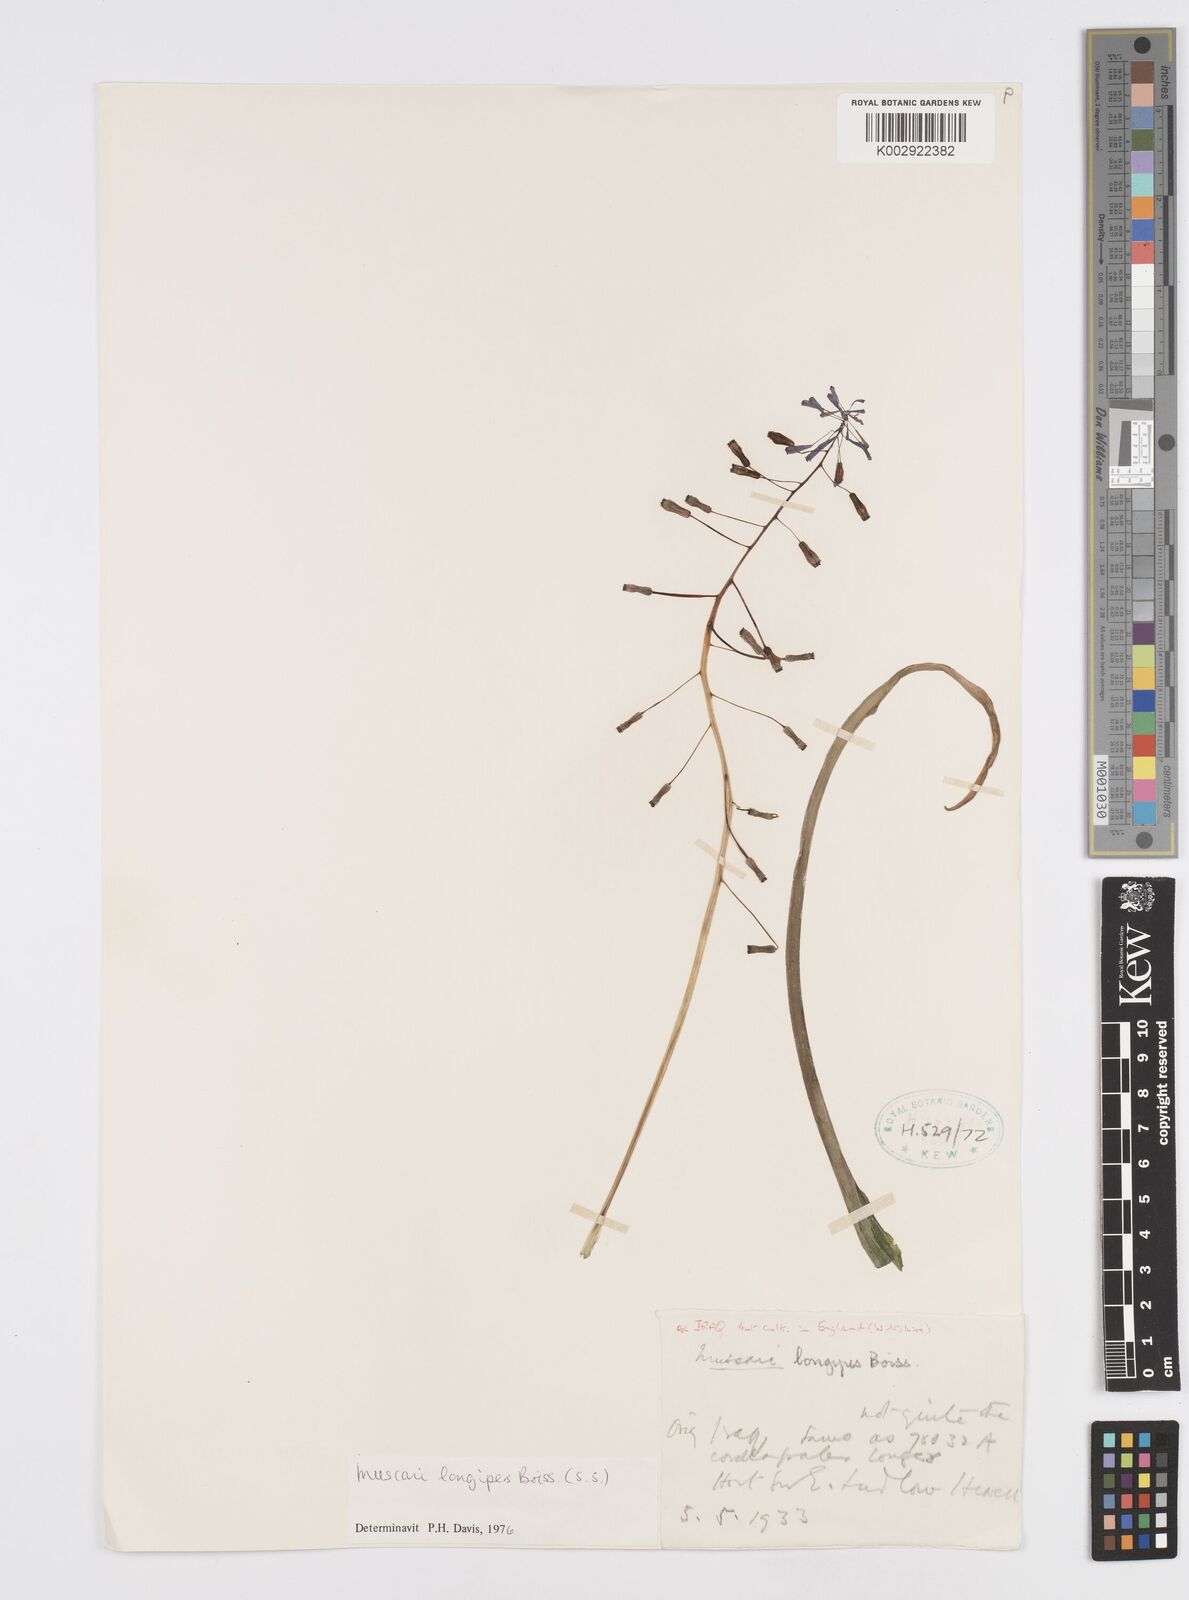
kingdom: Plantae
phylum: Tracheophyta
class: Liliopsida
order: Asparagales
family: Asparagaceae
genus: Muscari
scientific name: Muscari longipes
